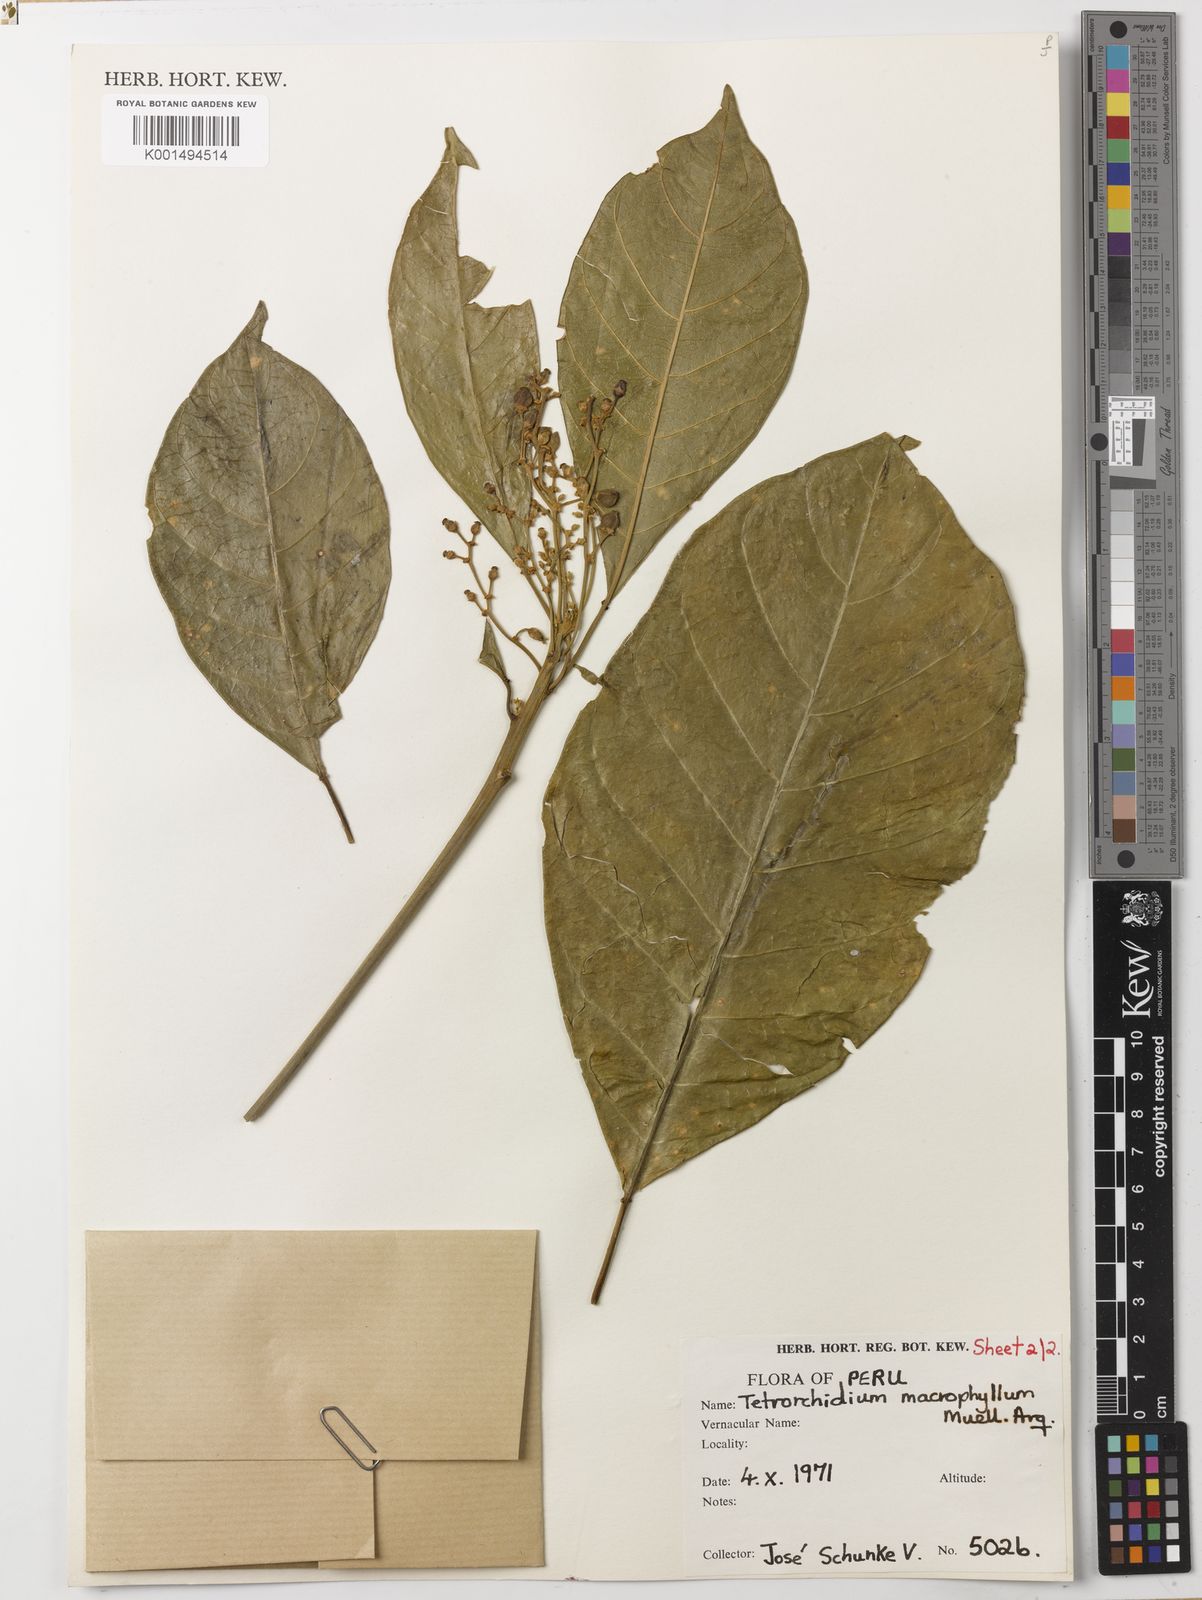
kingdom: Plantae
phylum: Tracheophyta
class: Magnoliopsida
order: Malpighiales
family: Euphorbiaceae
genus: Tetrorchidium
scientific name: Tetrorchidium macrophyllum
